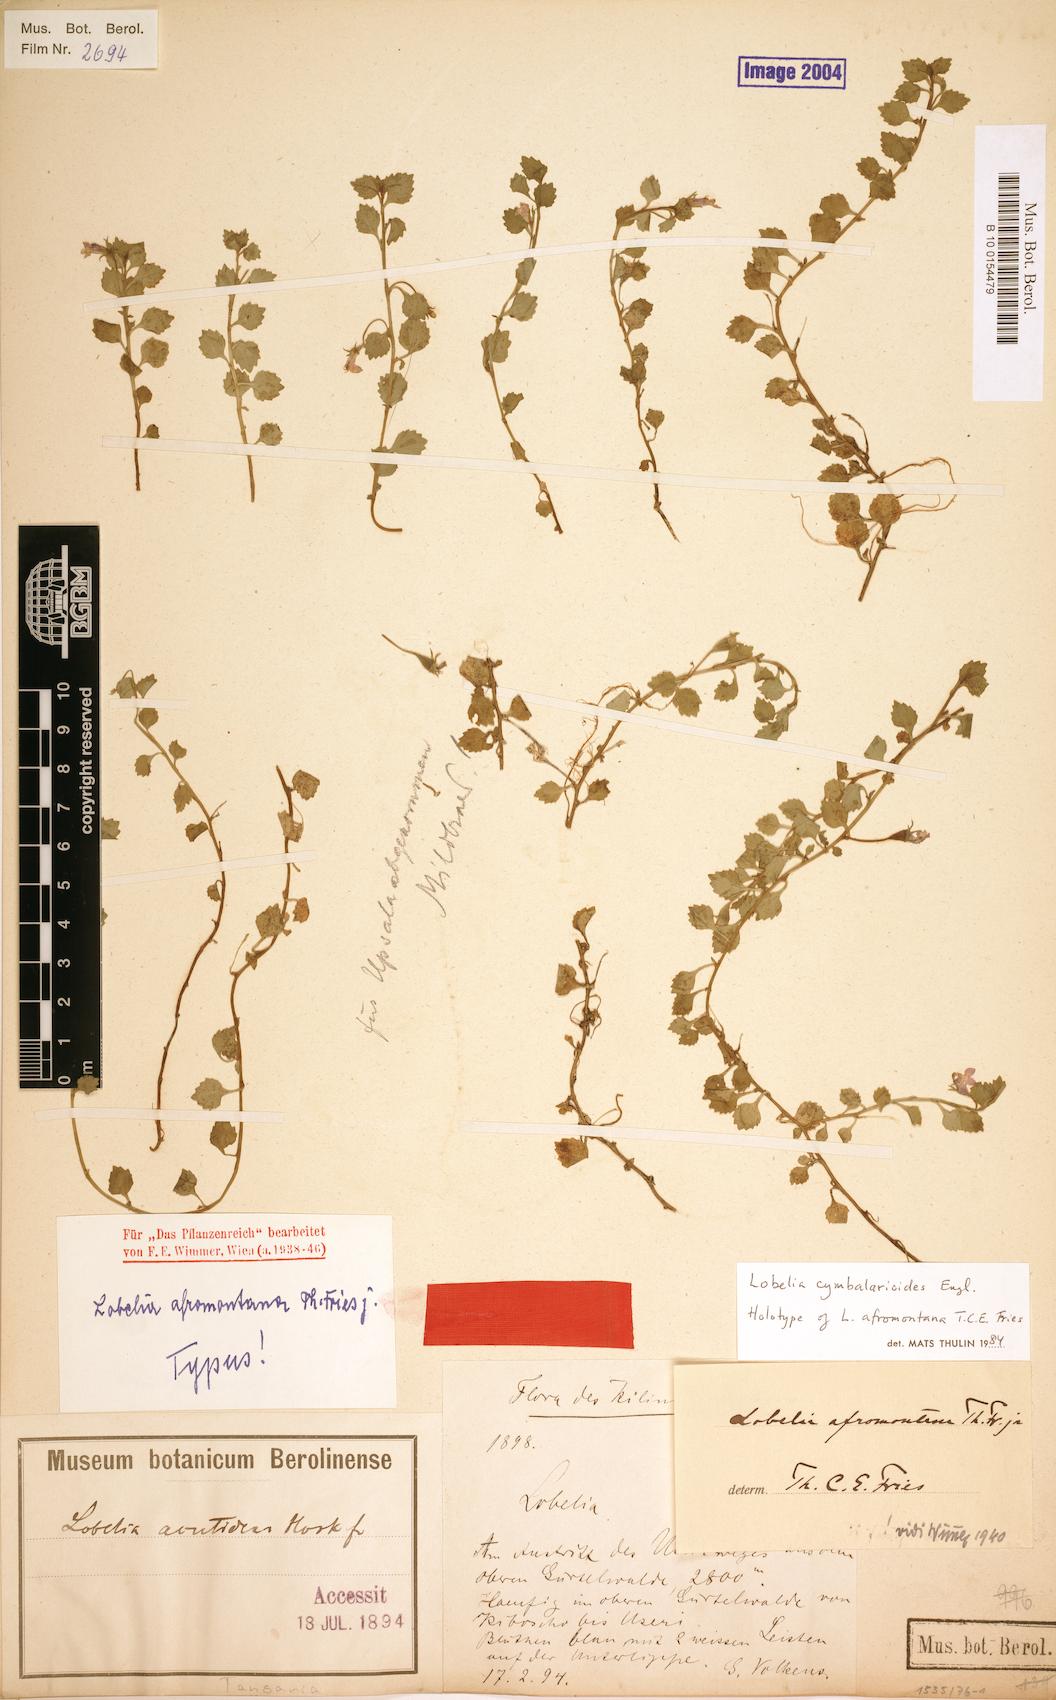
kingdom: Plantae
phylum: Tracheophyta
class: Magnoliopsida
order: Asterales
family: Campanulaceae
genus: Lobelia
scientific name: Lobelia cymbalarioides
